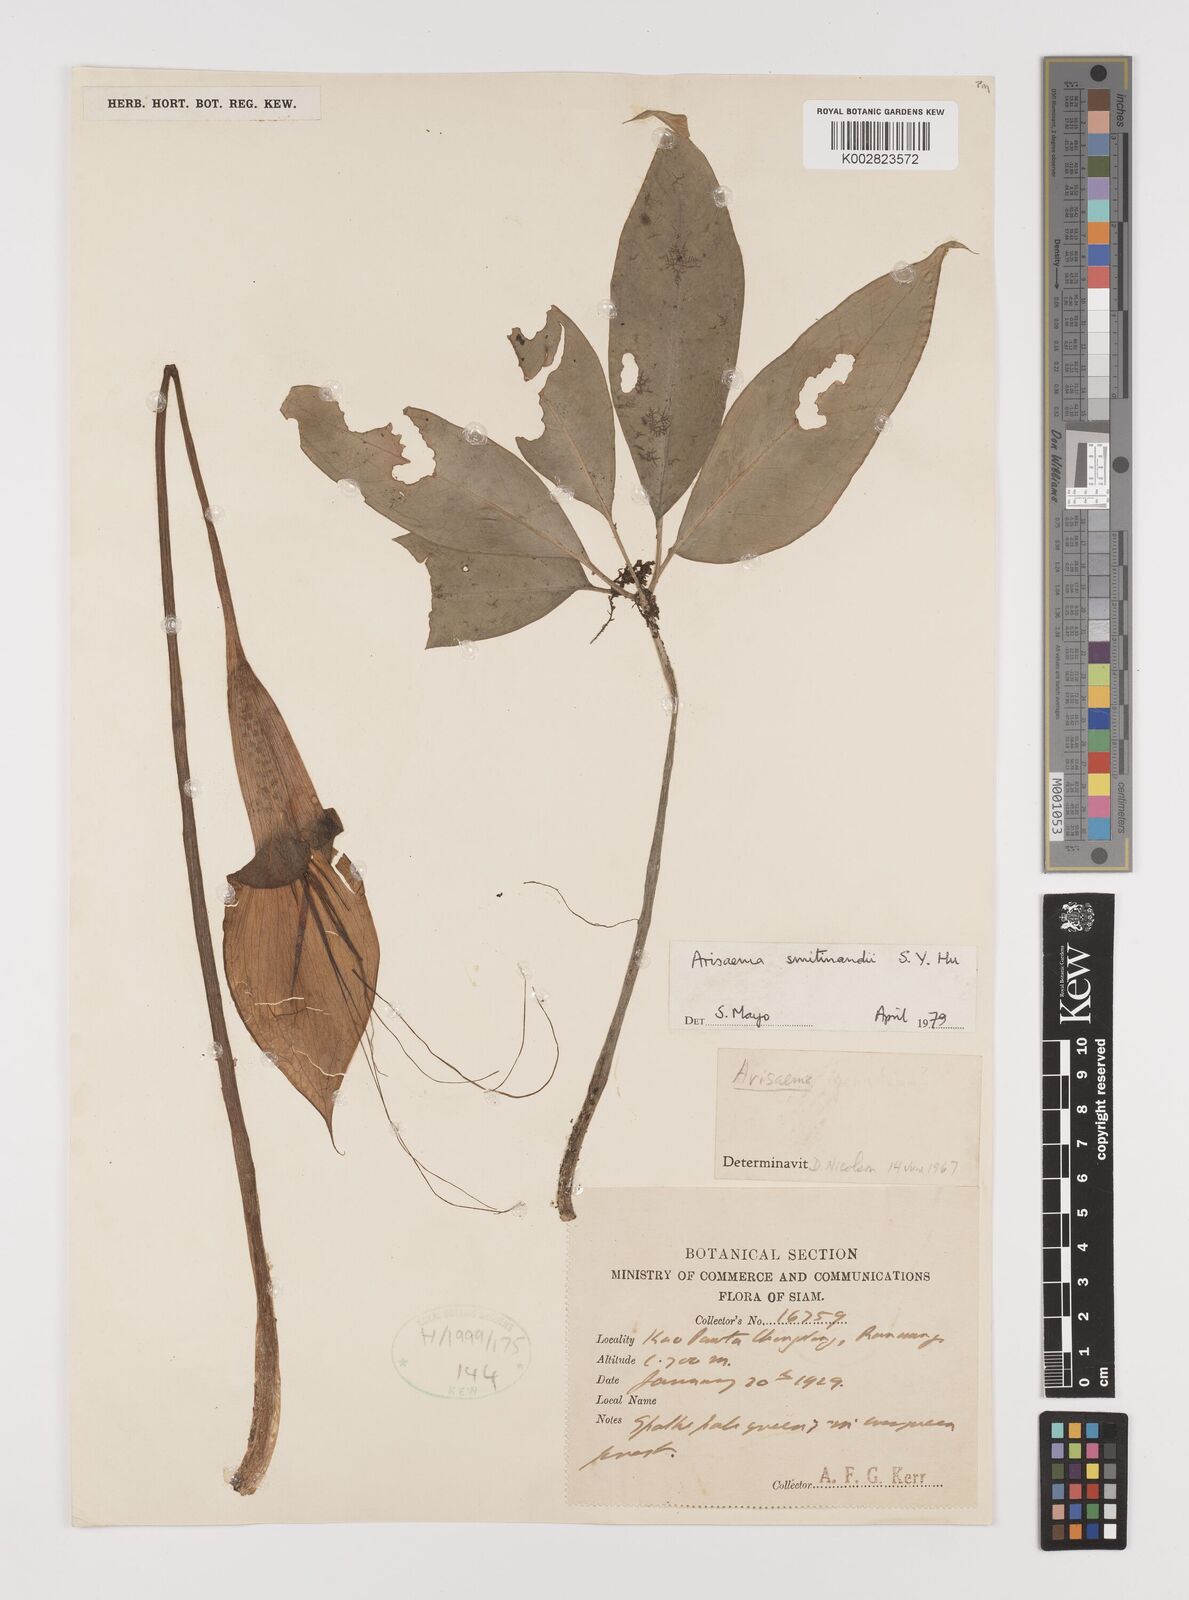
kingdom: Plantae
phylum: Tracheophyta
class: Liliopsida
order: Alismatales
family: Araceae
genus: Arisaema
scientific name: Arisaema chumponense
